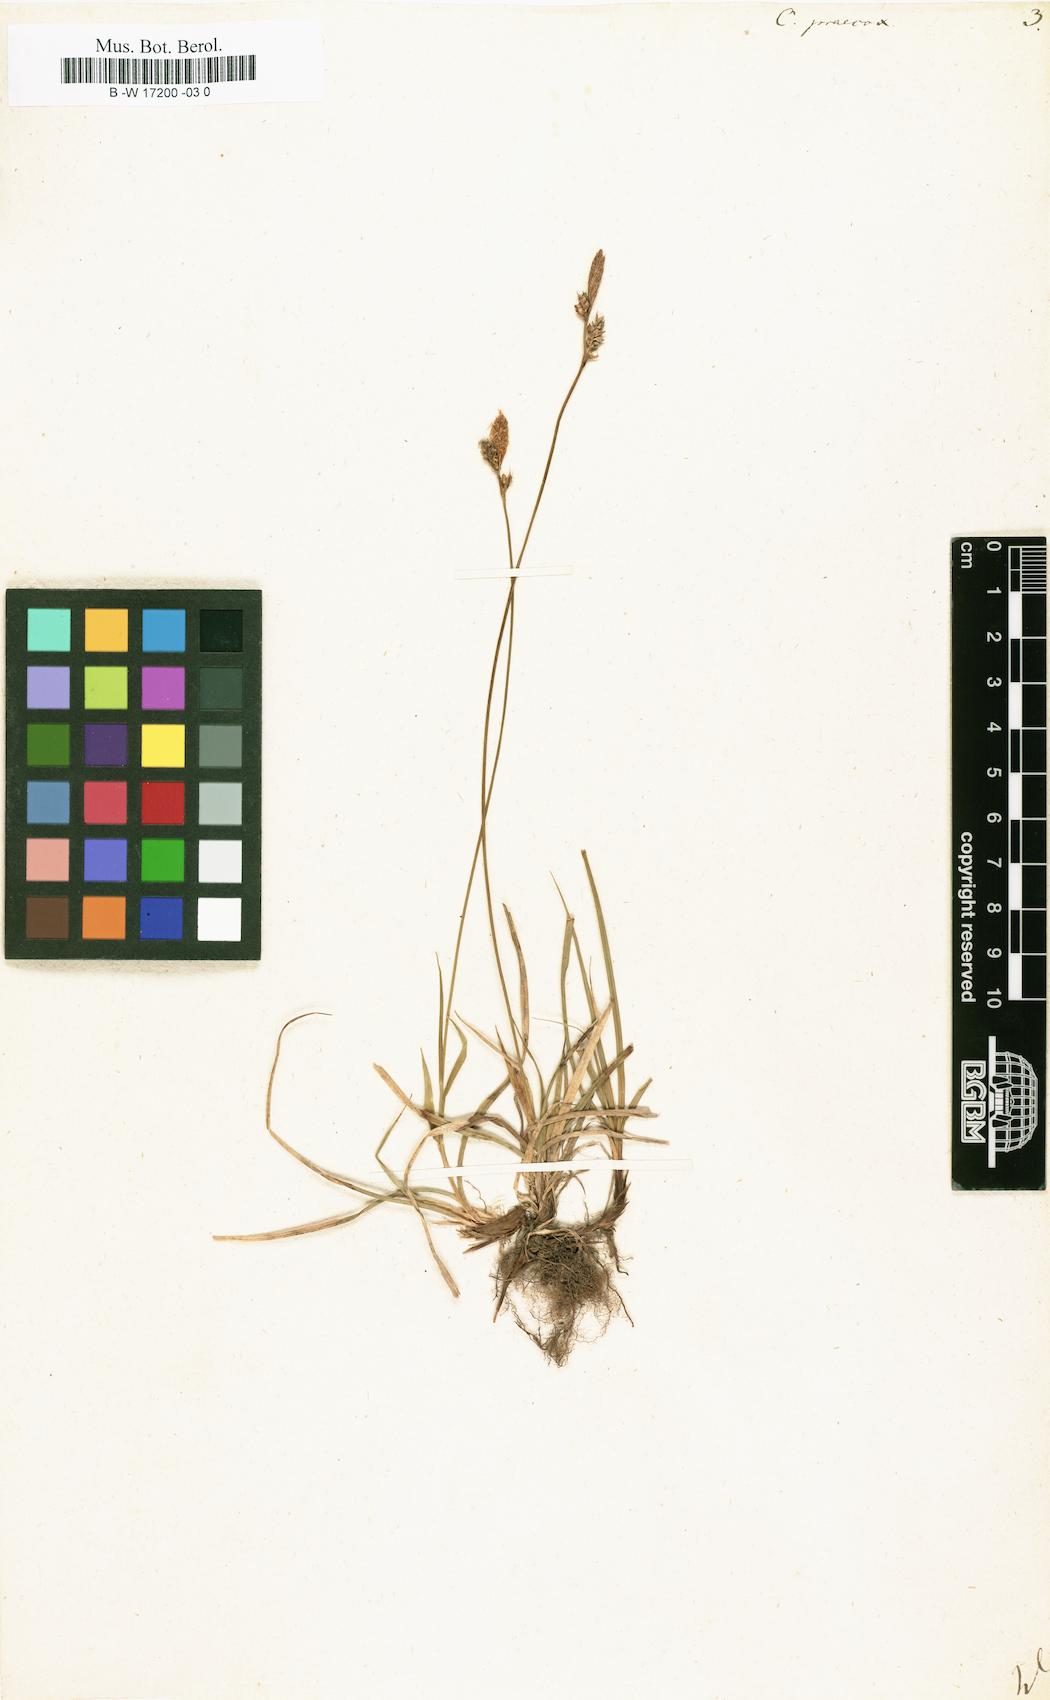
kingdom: Plantae
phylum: Tracheophyta
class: Liliopsida
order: Poales
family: Cyperaceae
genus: Carex
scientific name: Carex praecox
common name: Early sedge
